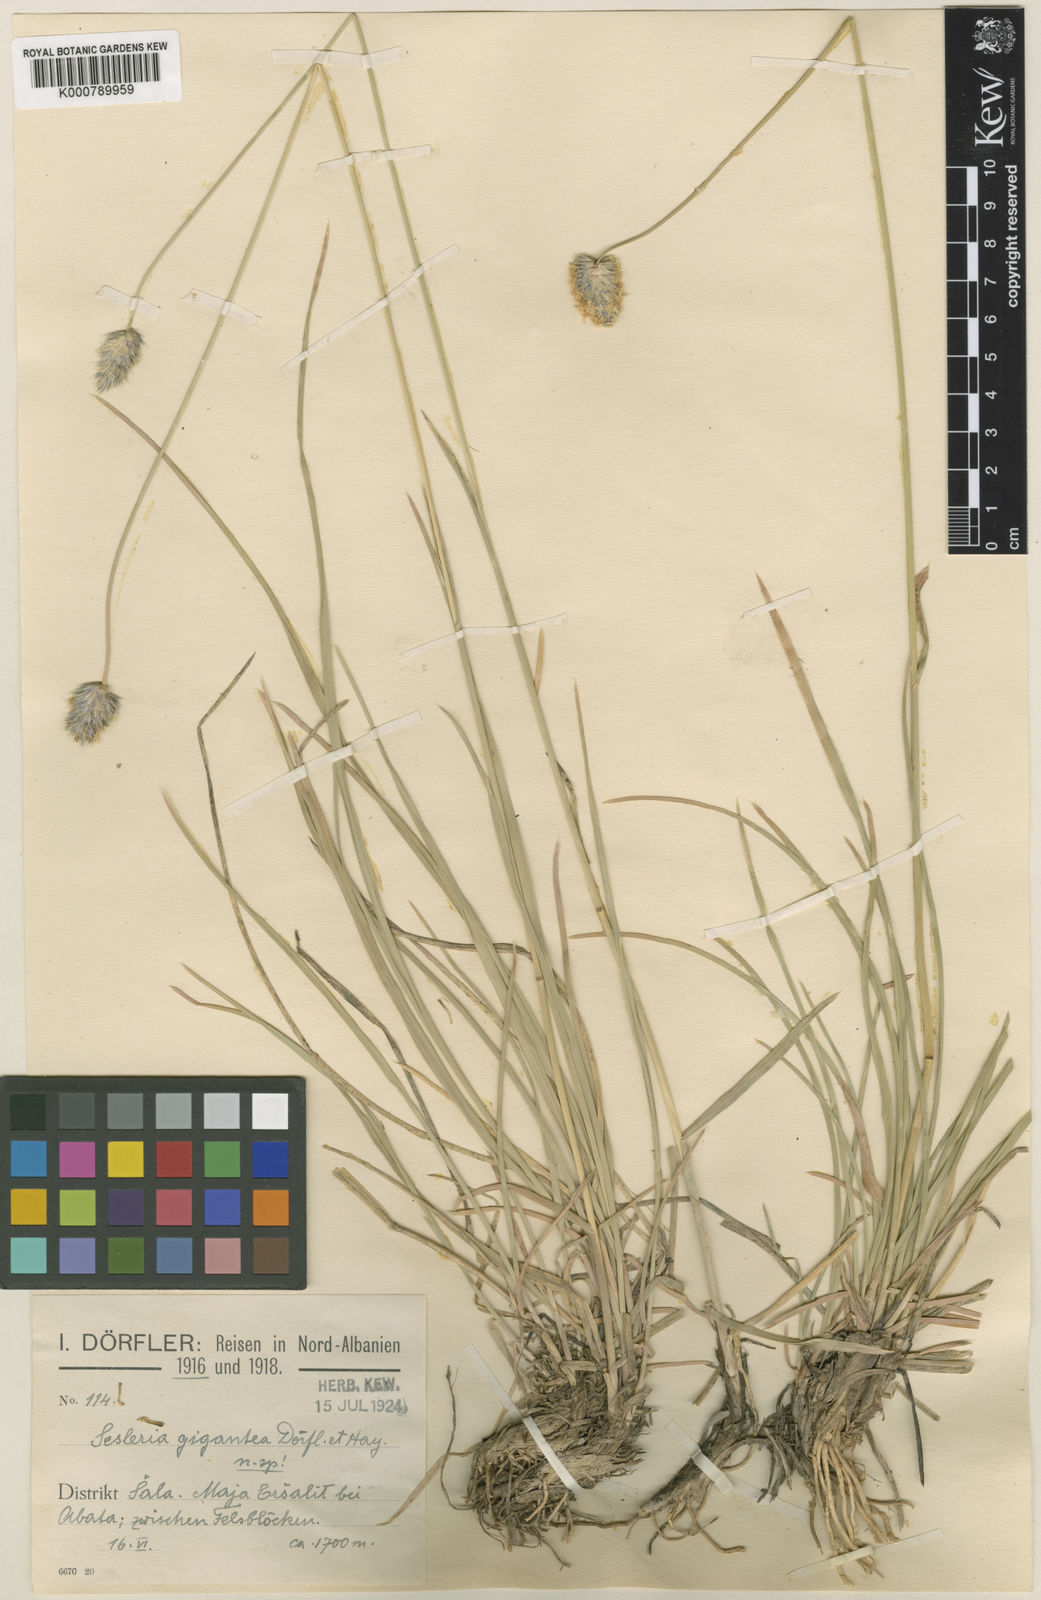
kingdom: Plantae
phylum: Tracheophyta
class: Liliopsida
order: Poales
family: Poaceae
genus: Sesleria
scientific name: Sesleria
